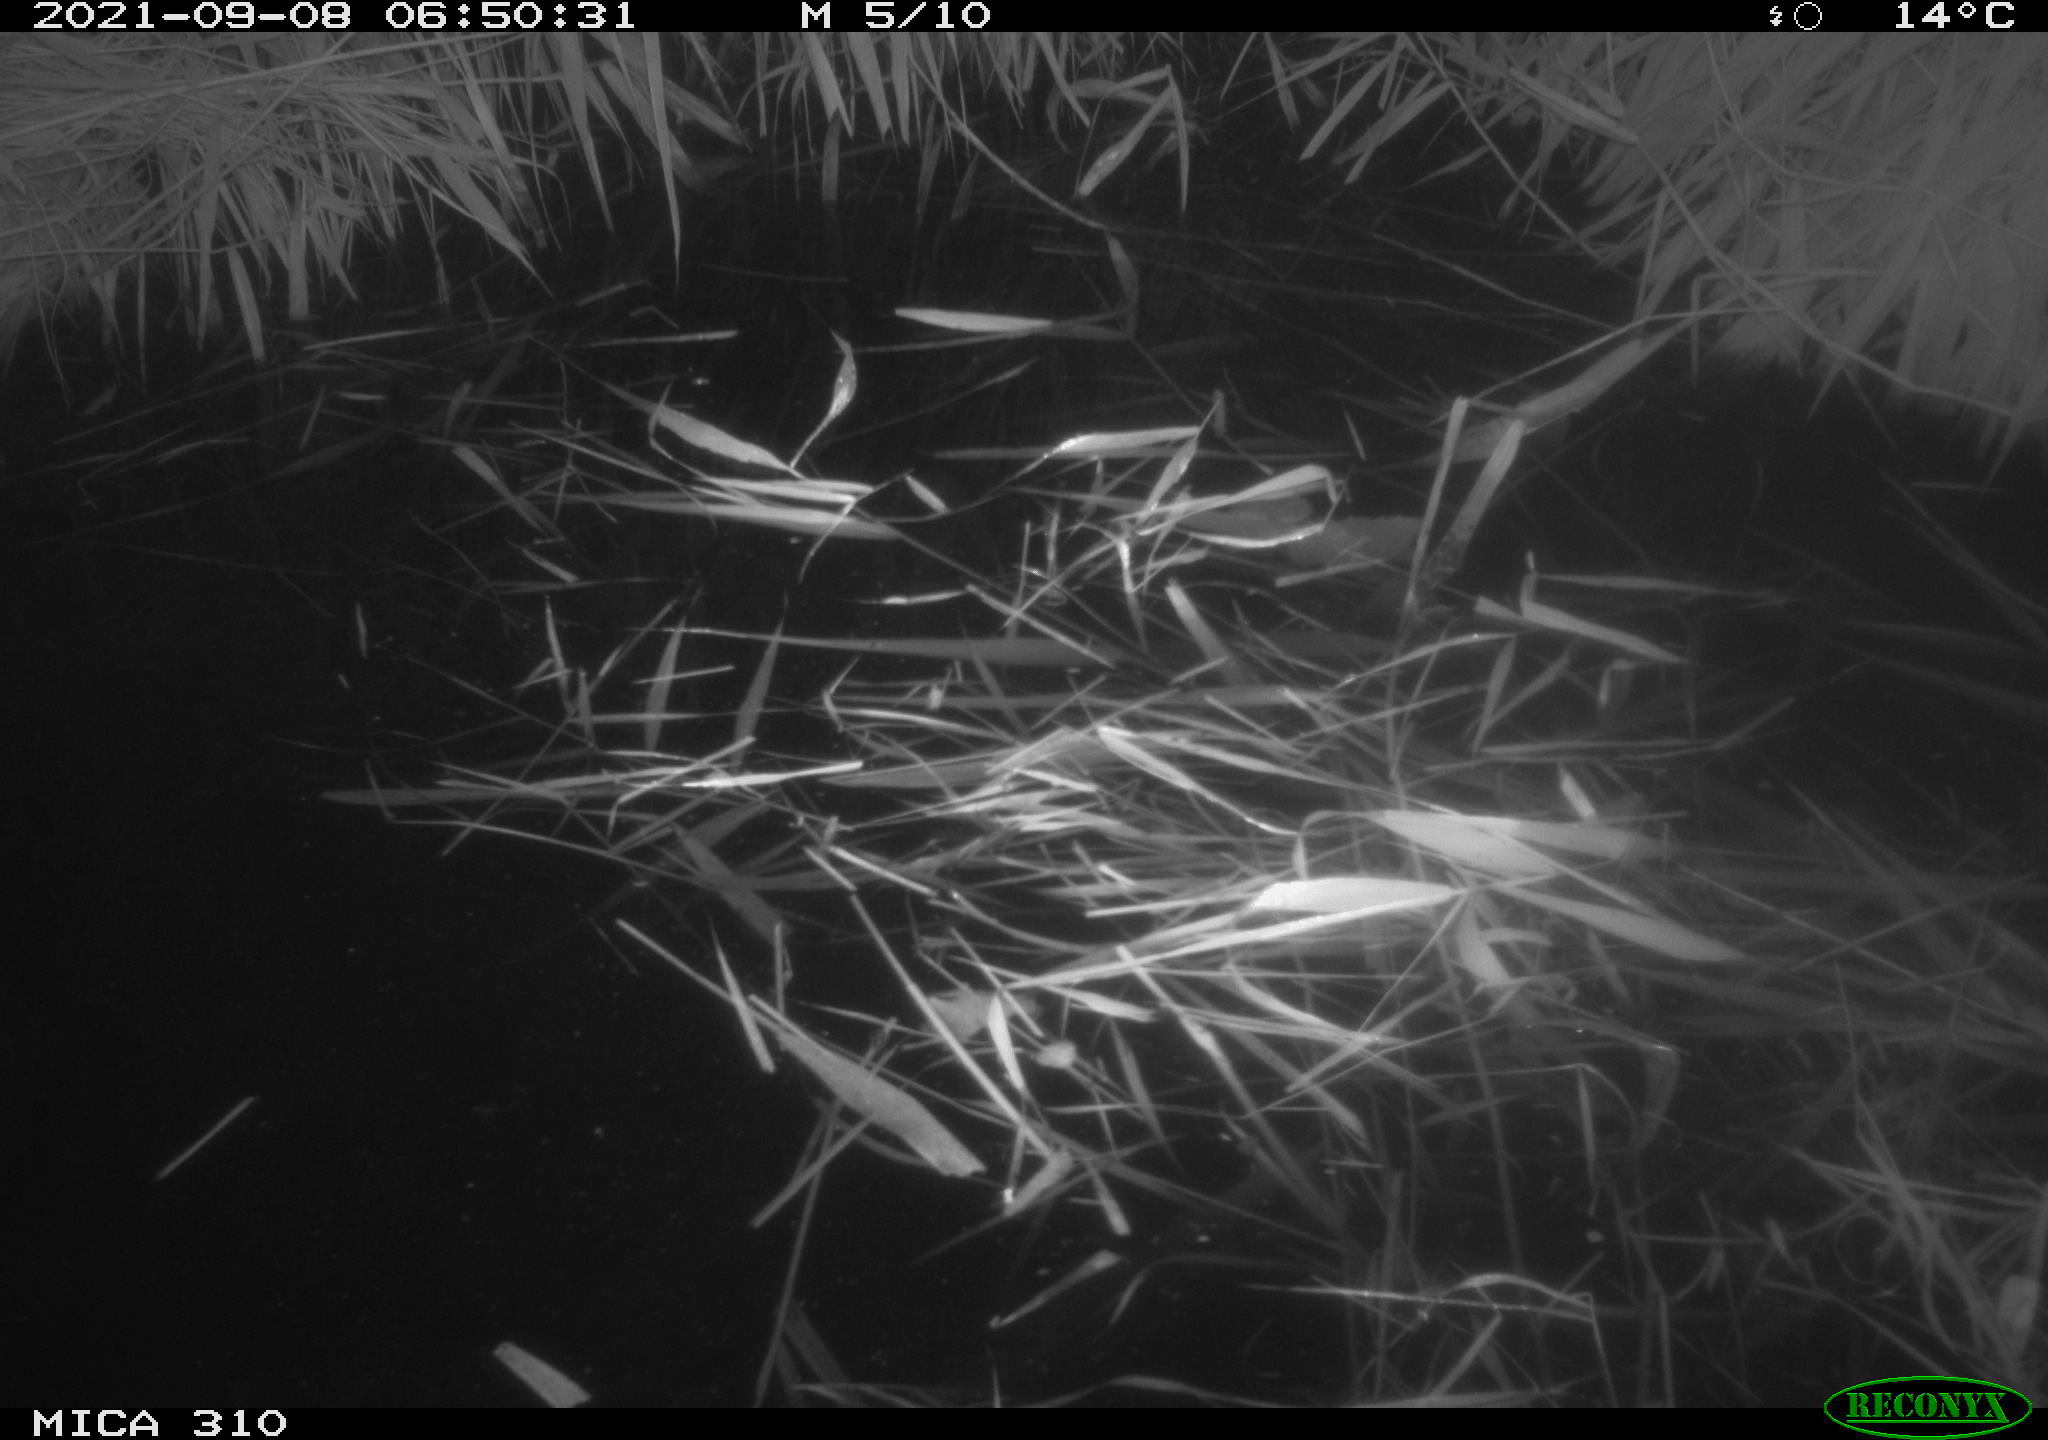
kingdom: Animalia
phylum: Chordata
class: Aves
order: Gruiformes
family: Rallidae
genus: Gallinula
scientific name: Gallinula chloropus
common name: Common moorhen
